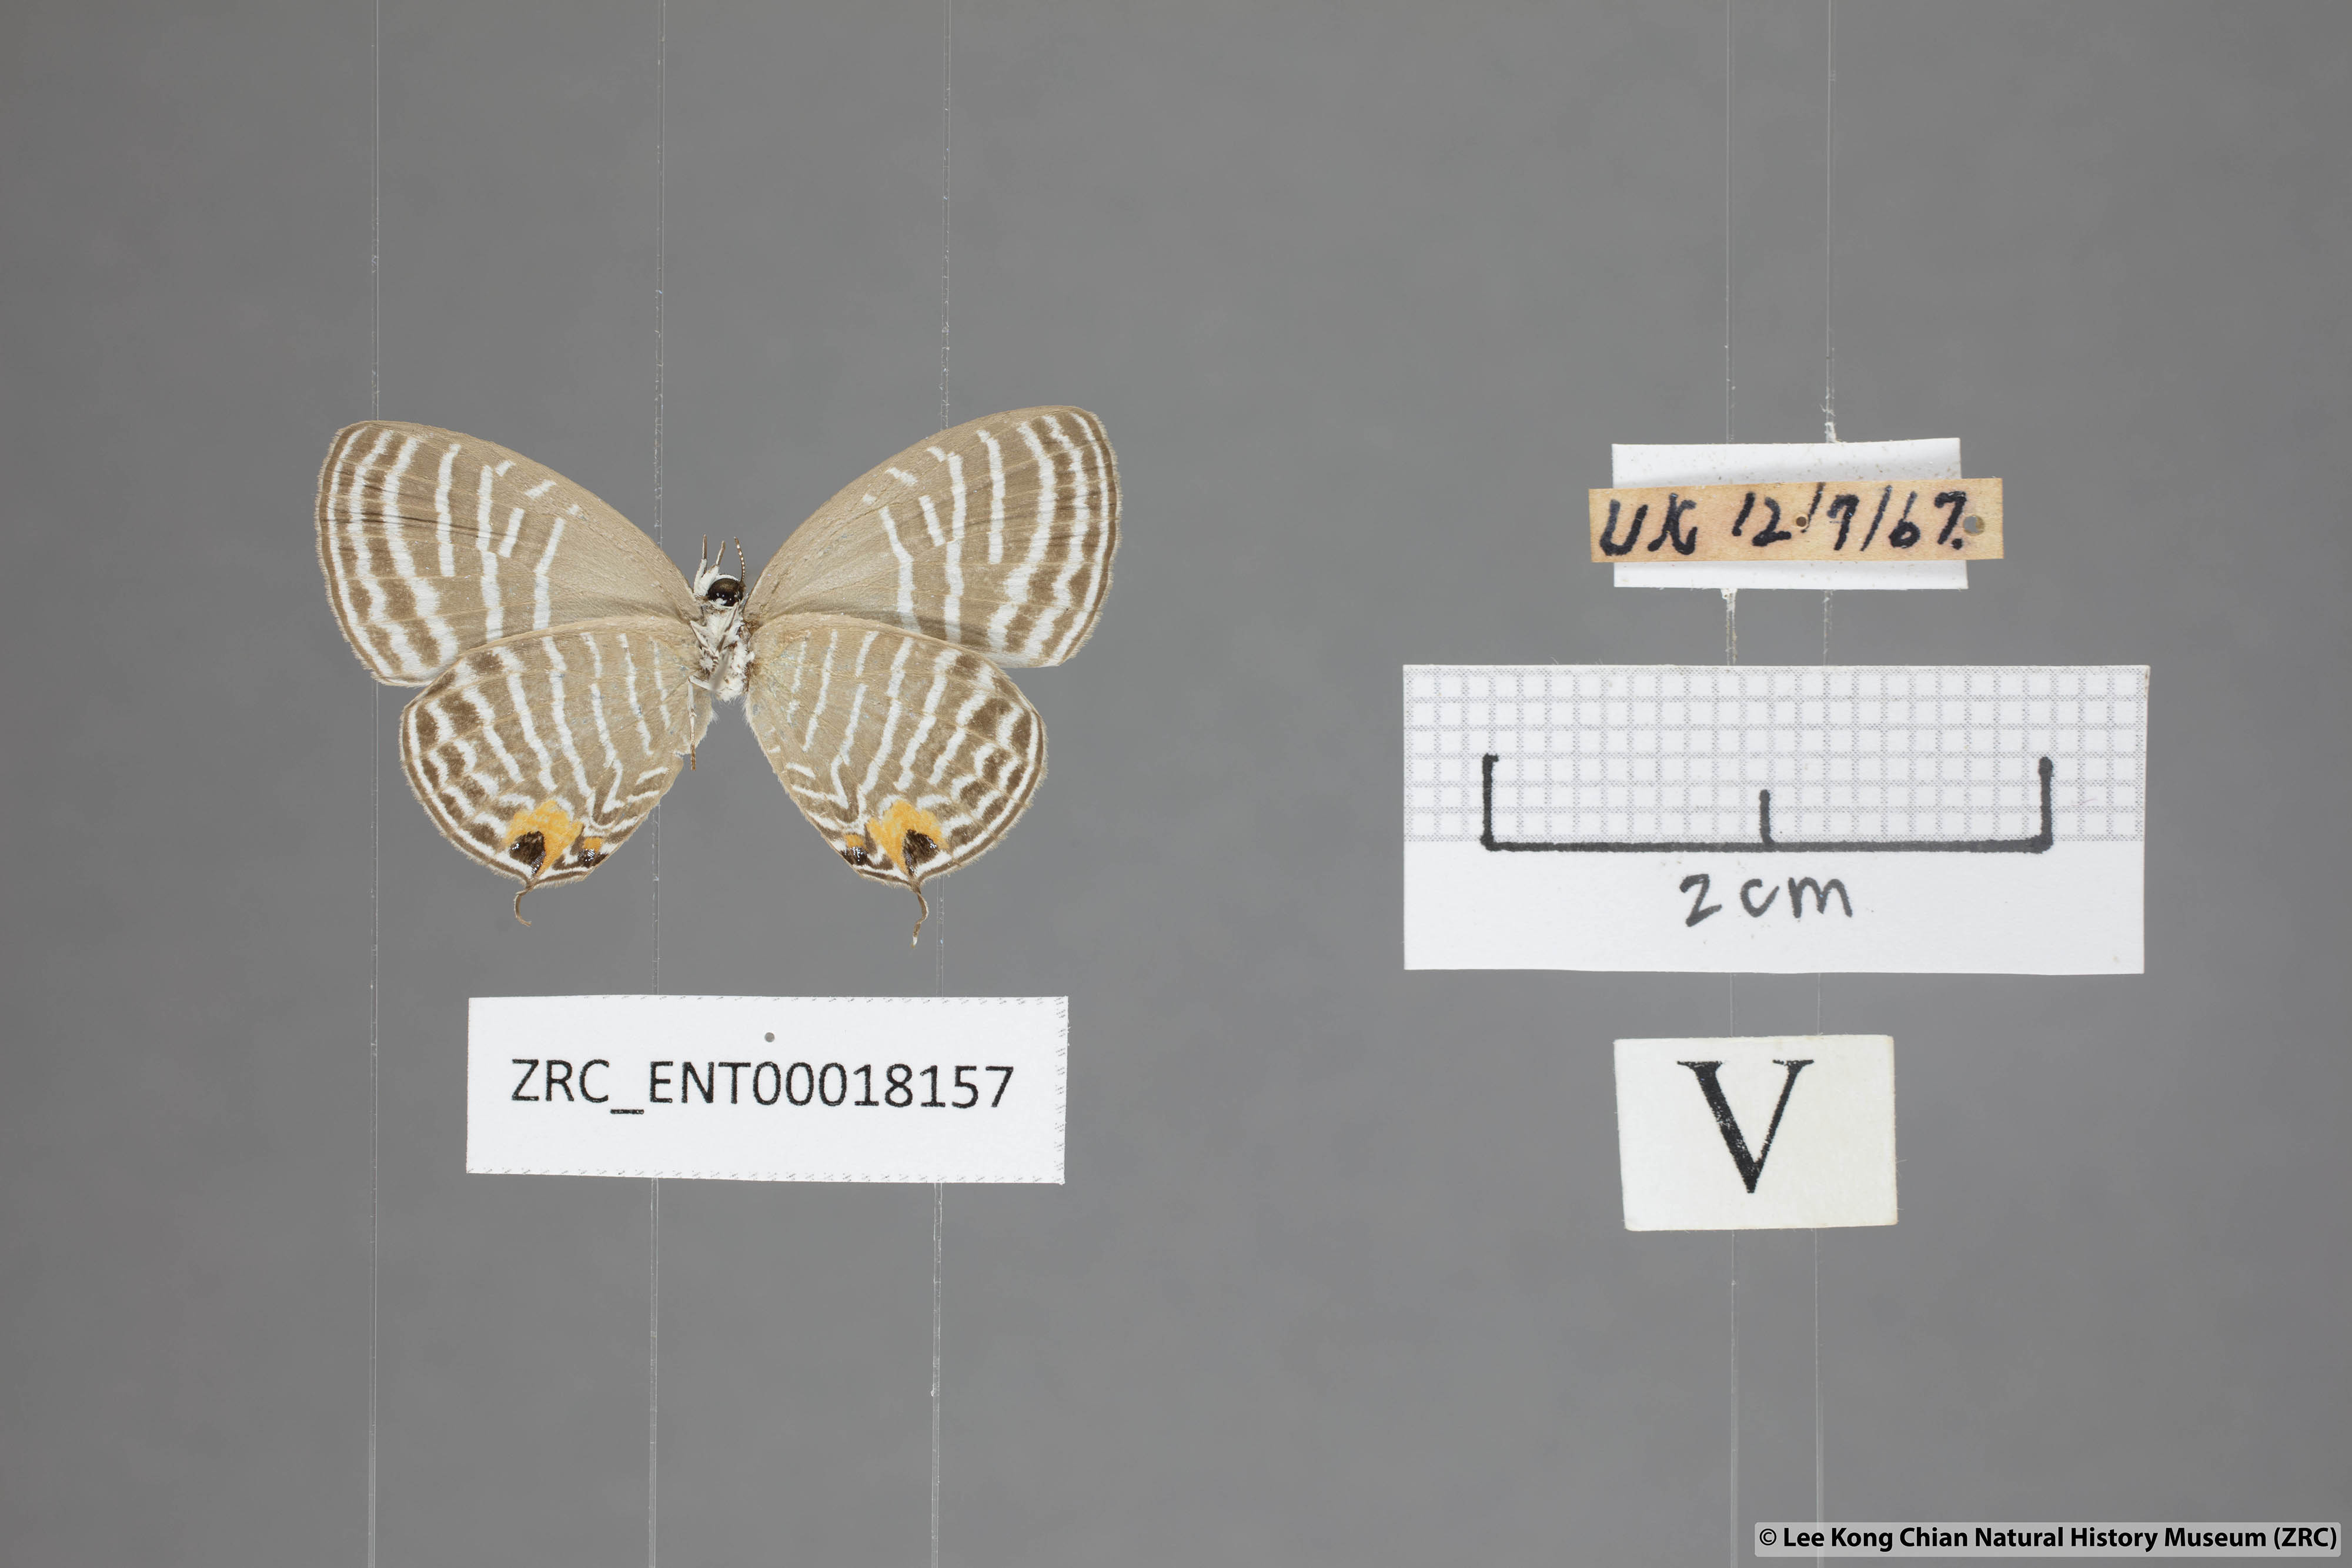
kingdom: Animalia
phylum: Arthropoda
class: Insecta
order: Lepidoptera
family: Lycaenidae
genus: Jamides
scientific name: Jamides parasaturata
